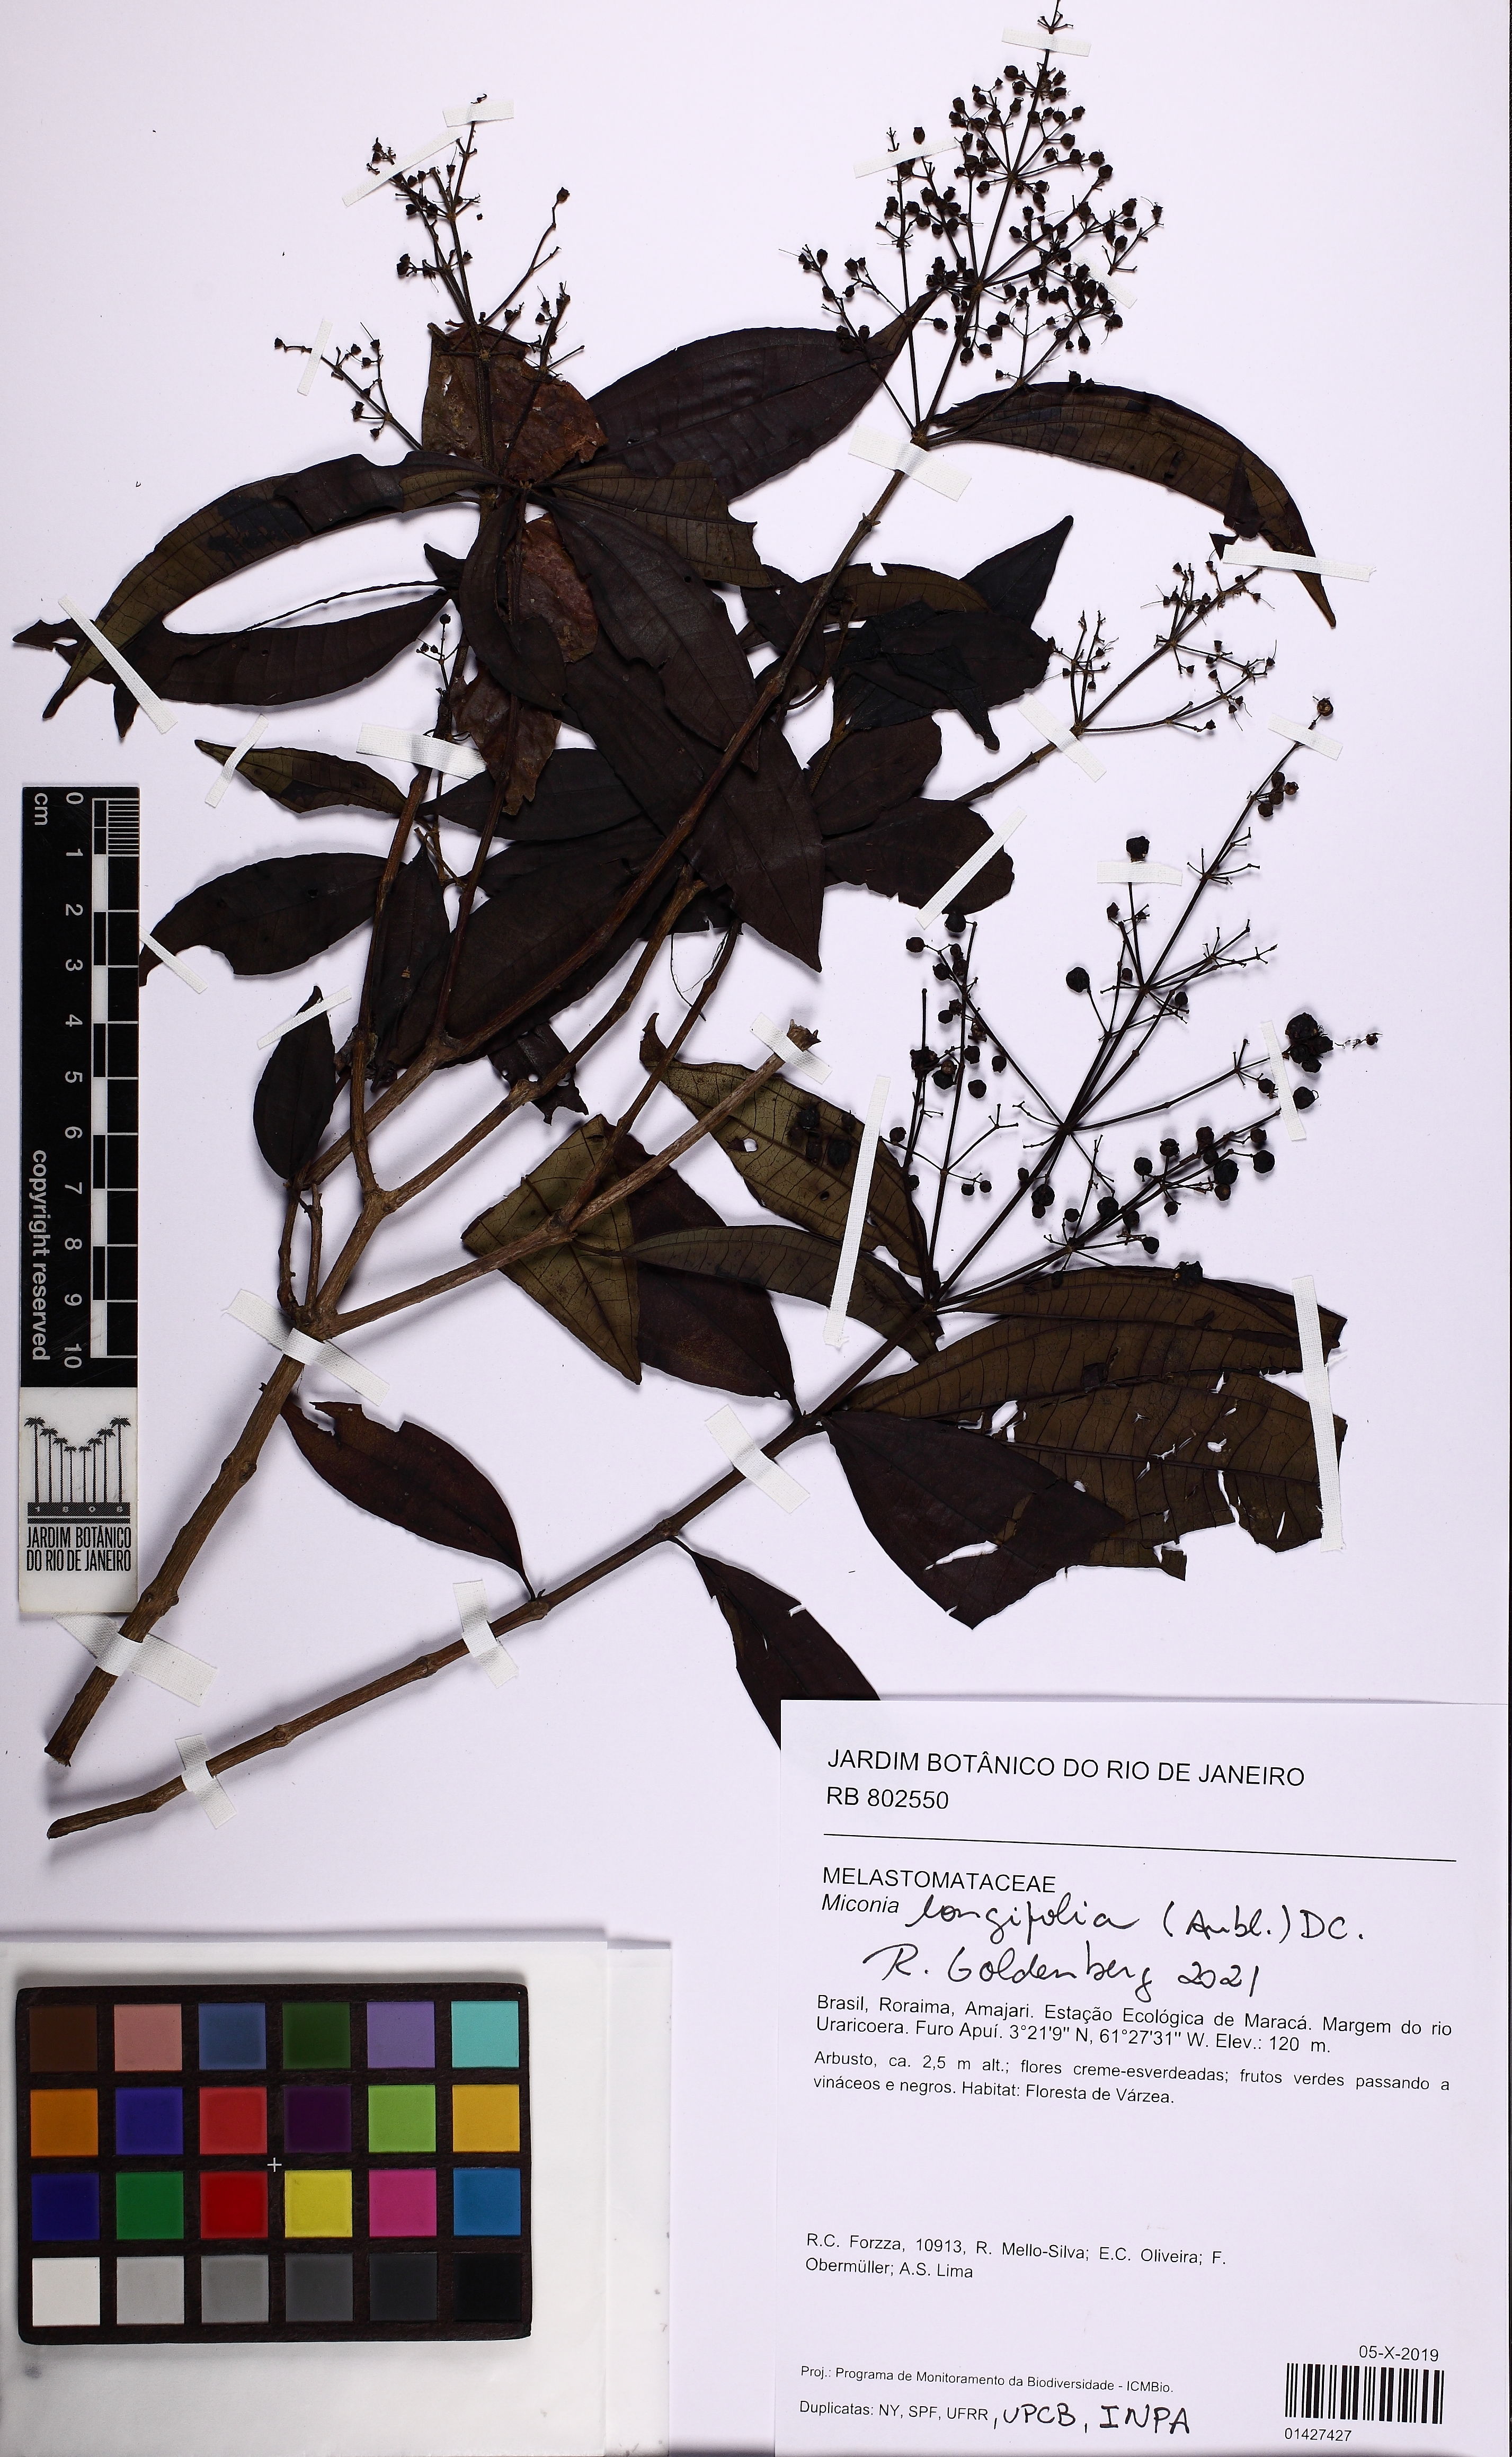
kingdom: Plantae
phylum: Tracheophyta
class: Magnoliopsida
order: Myrtales
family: Melastomataceae
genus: Miconia
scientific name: Miconia longifolia
